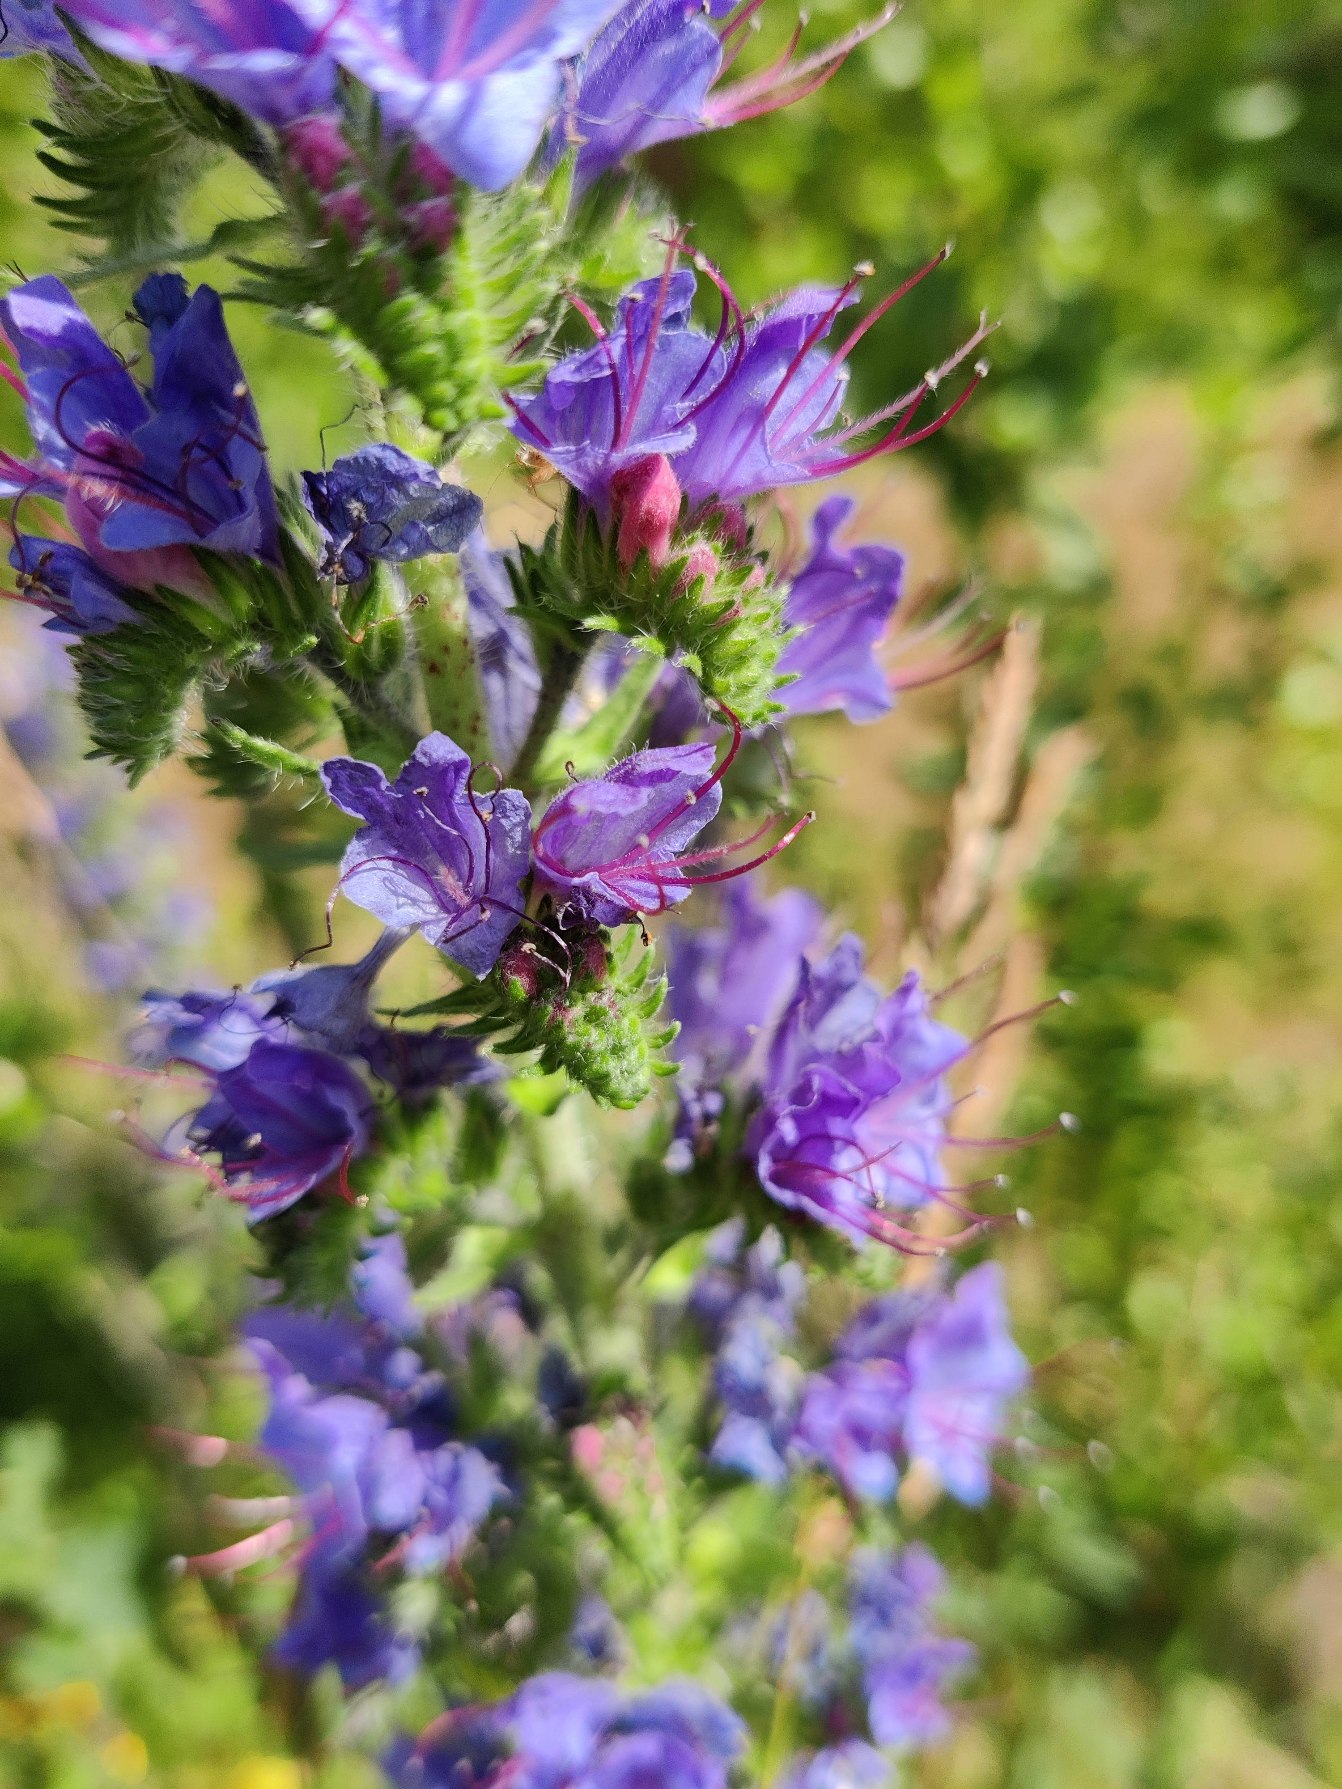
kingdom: Plantae
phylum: Tracheophyta
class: Magnoliopsida
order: Boraginales
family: Boraginaceae
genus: Echium
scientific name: Echium vulgare
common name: Slangehoved
